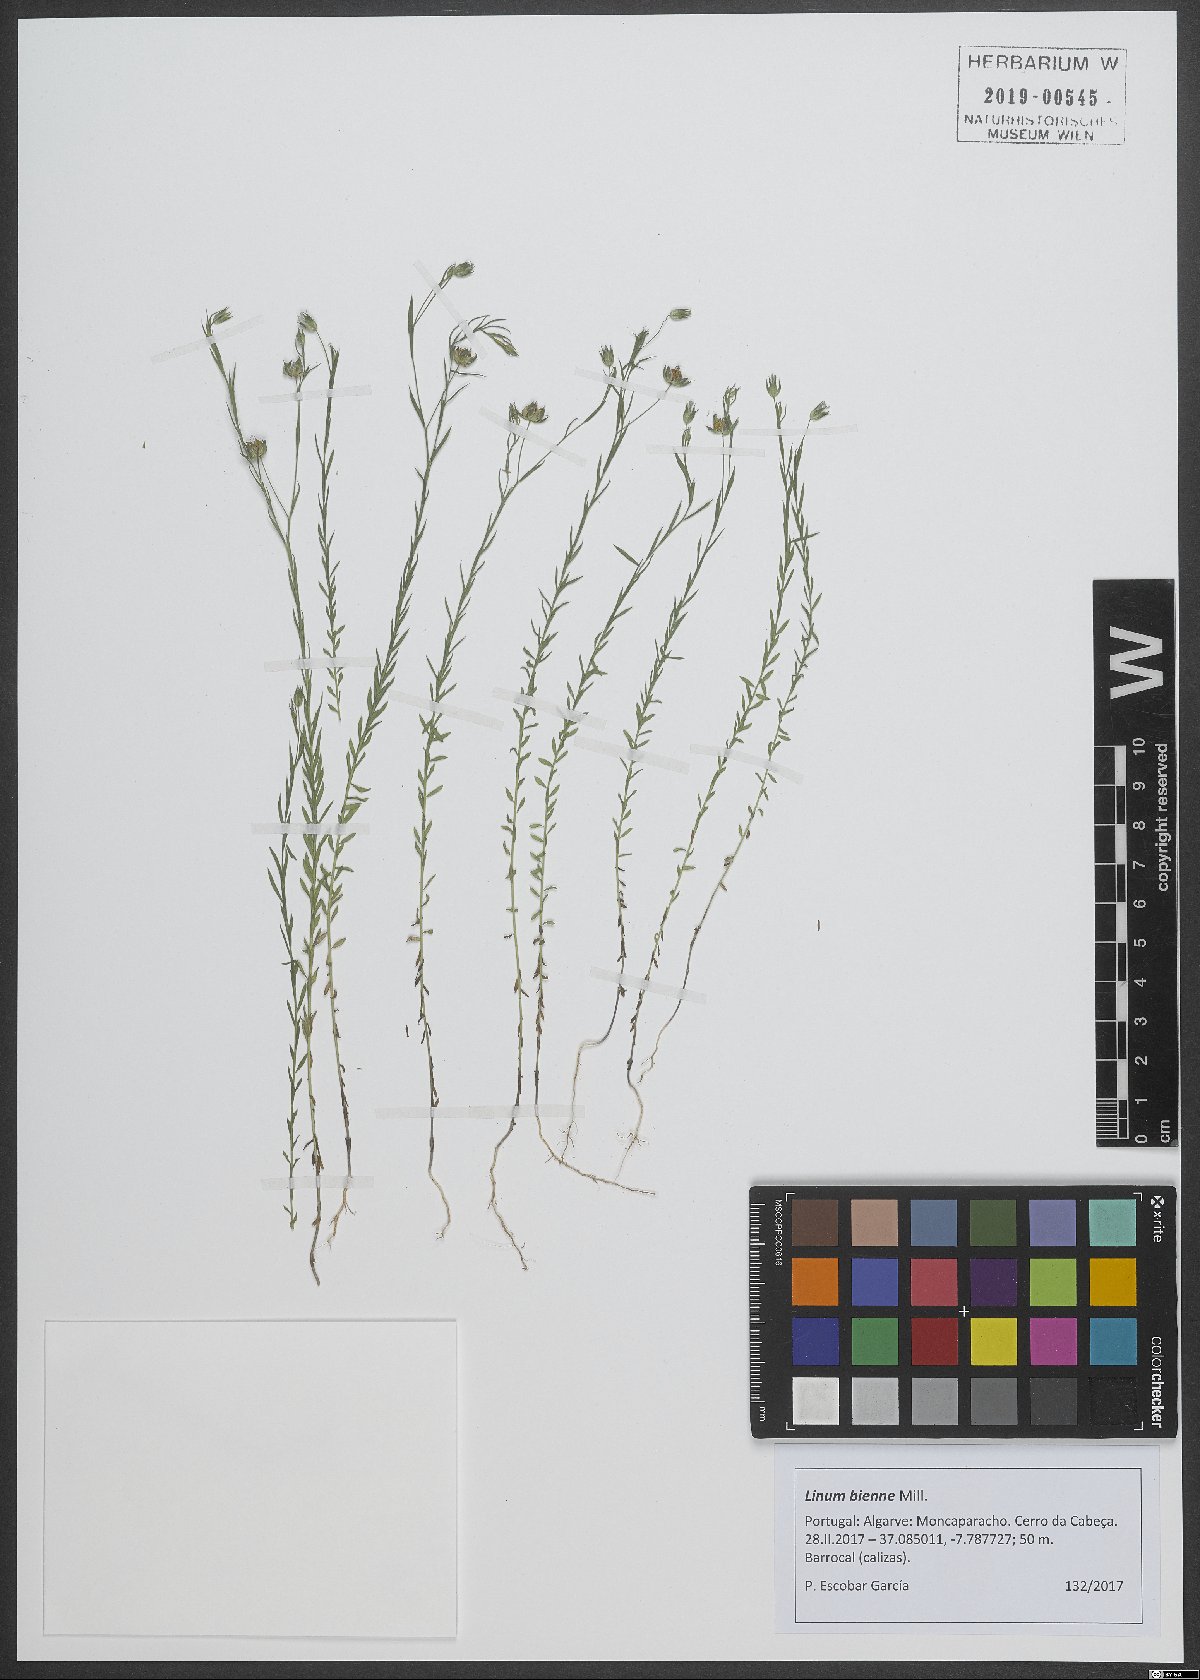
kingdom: Plantae
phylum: Tracheophyta
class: Magnoliopsida
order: Malpighiales
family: Linaceae
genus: Linum
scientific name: Linum bienne
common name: Pale flax
